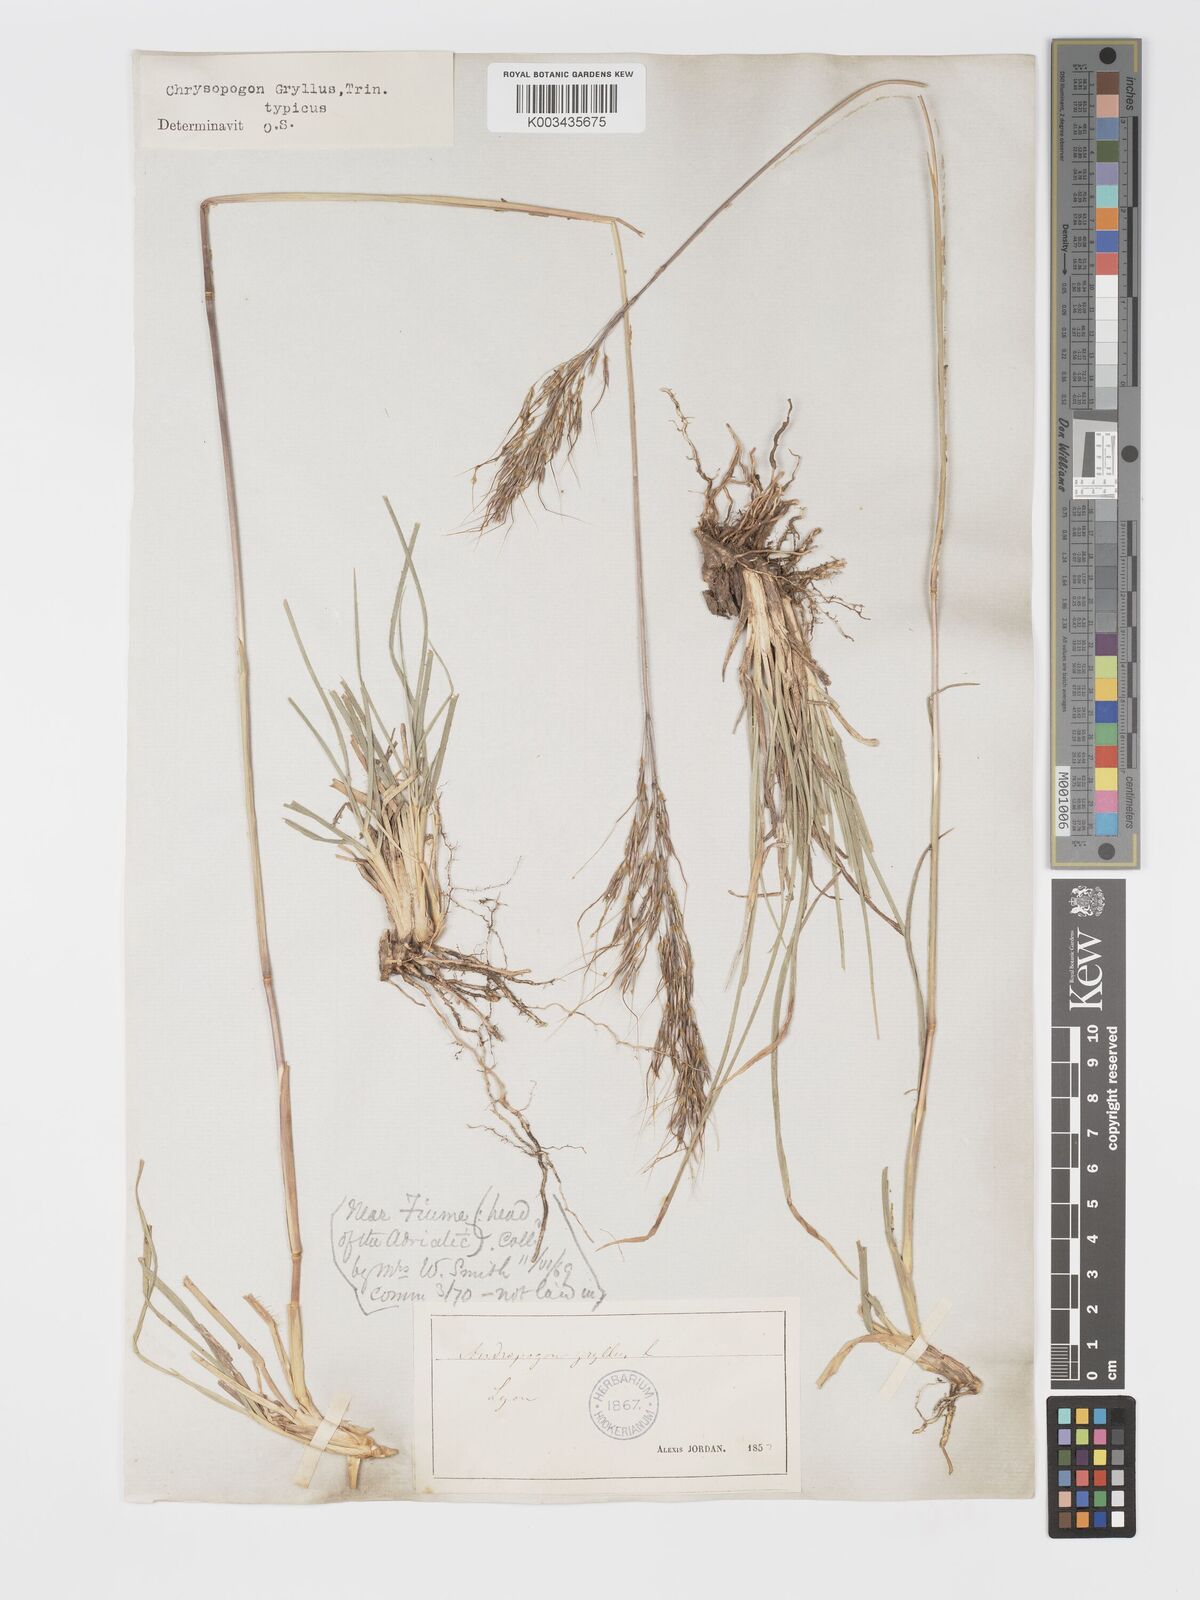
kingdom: Plantae
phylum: Tracheophyta
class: Liliopsida
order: Poales
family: Poaceae
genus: Chrysopogon
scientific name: Chrysopogon gryllus
